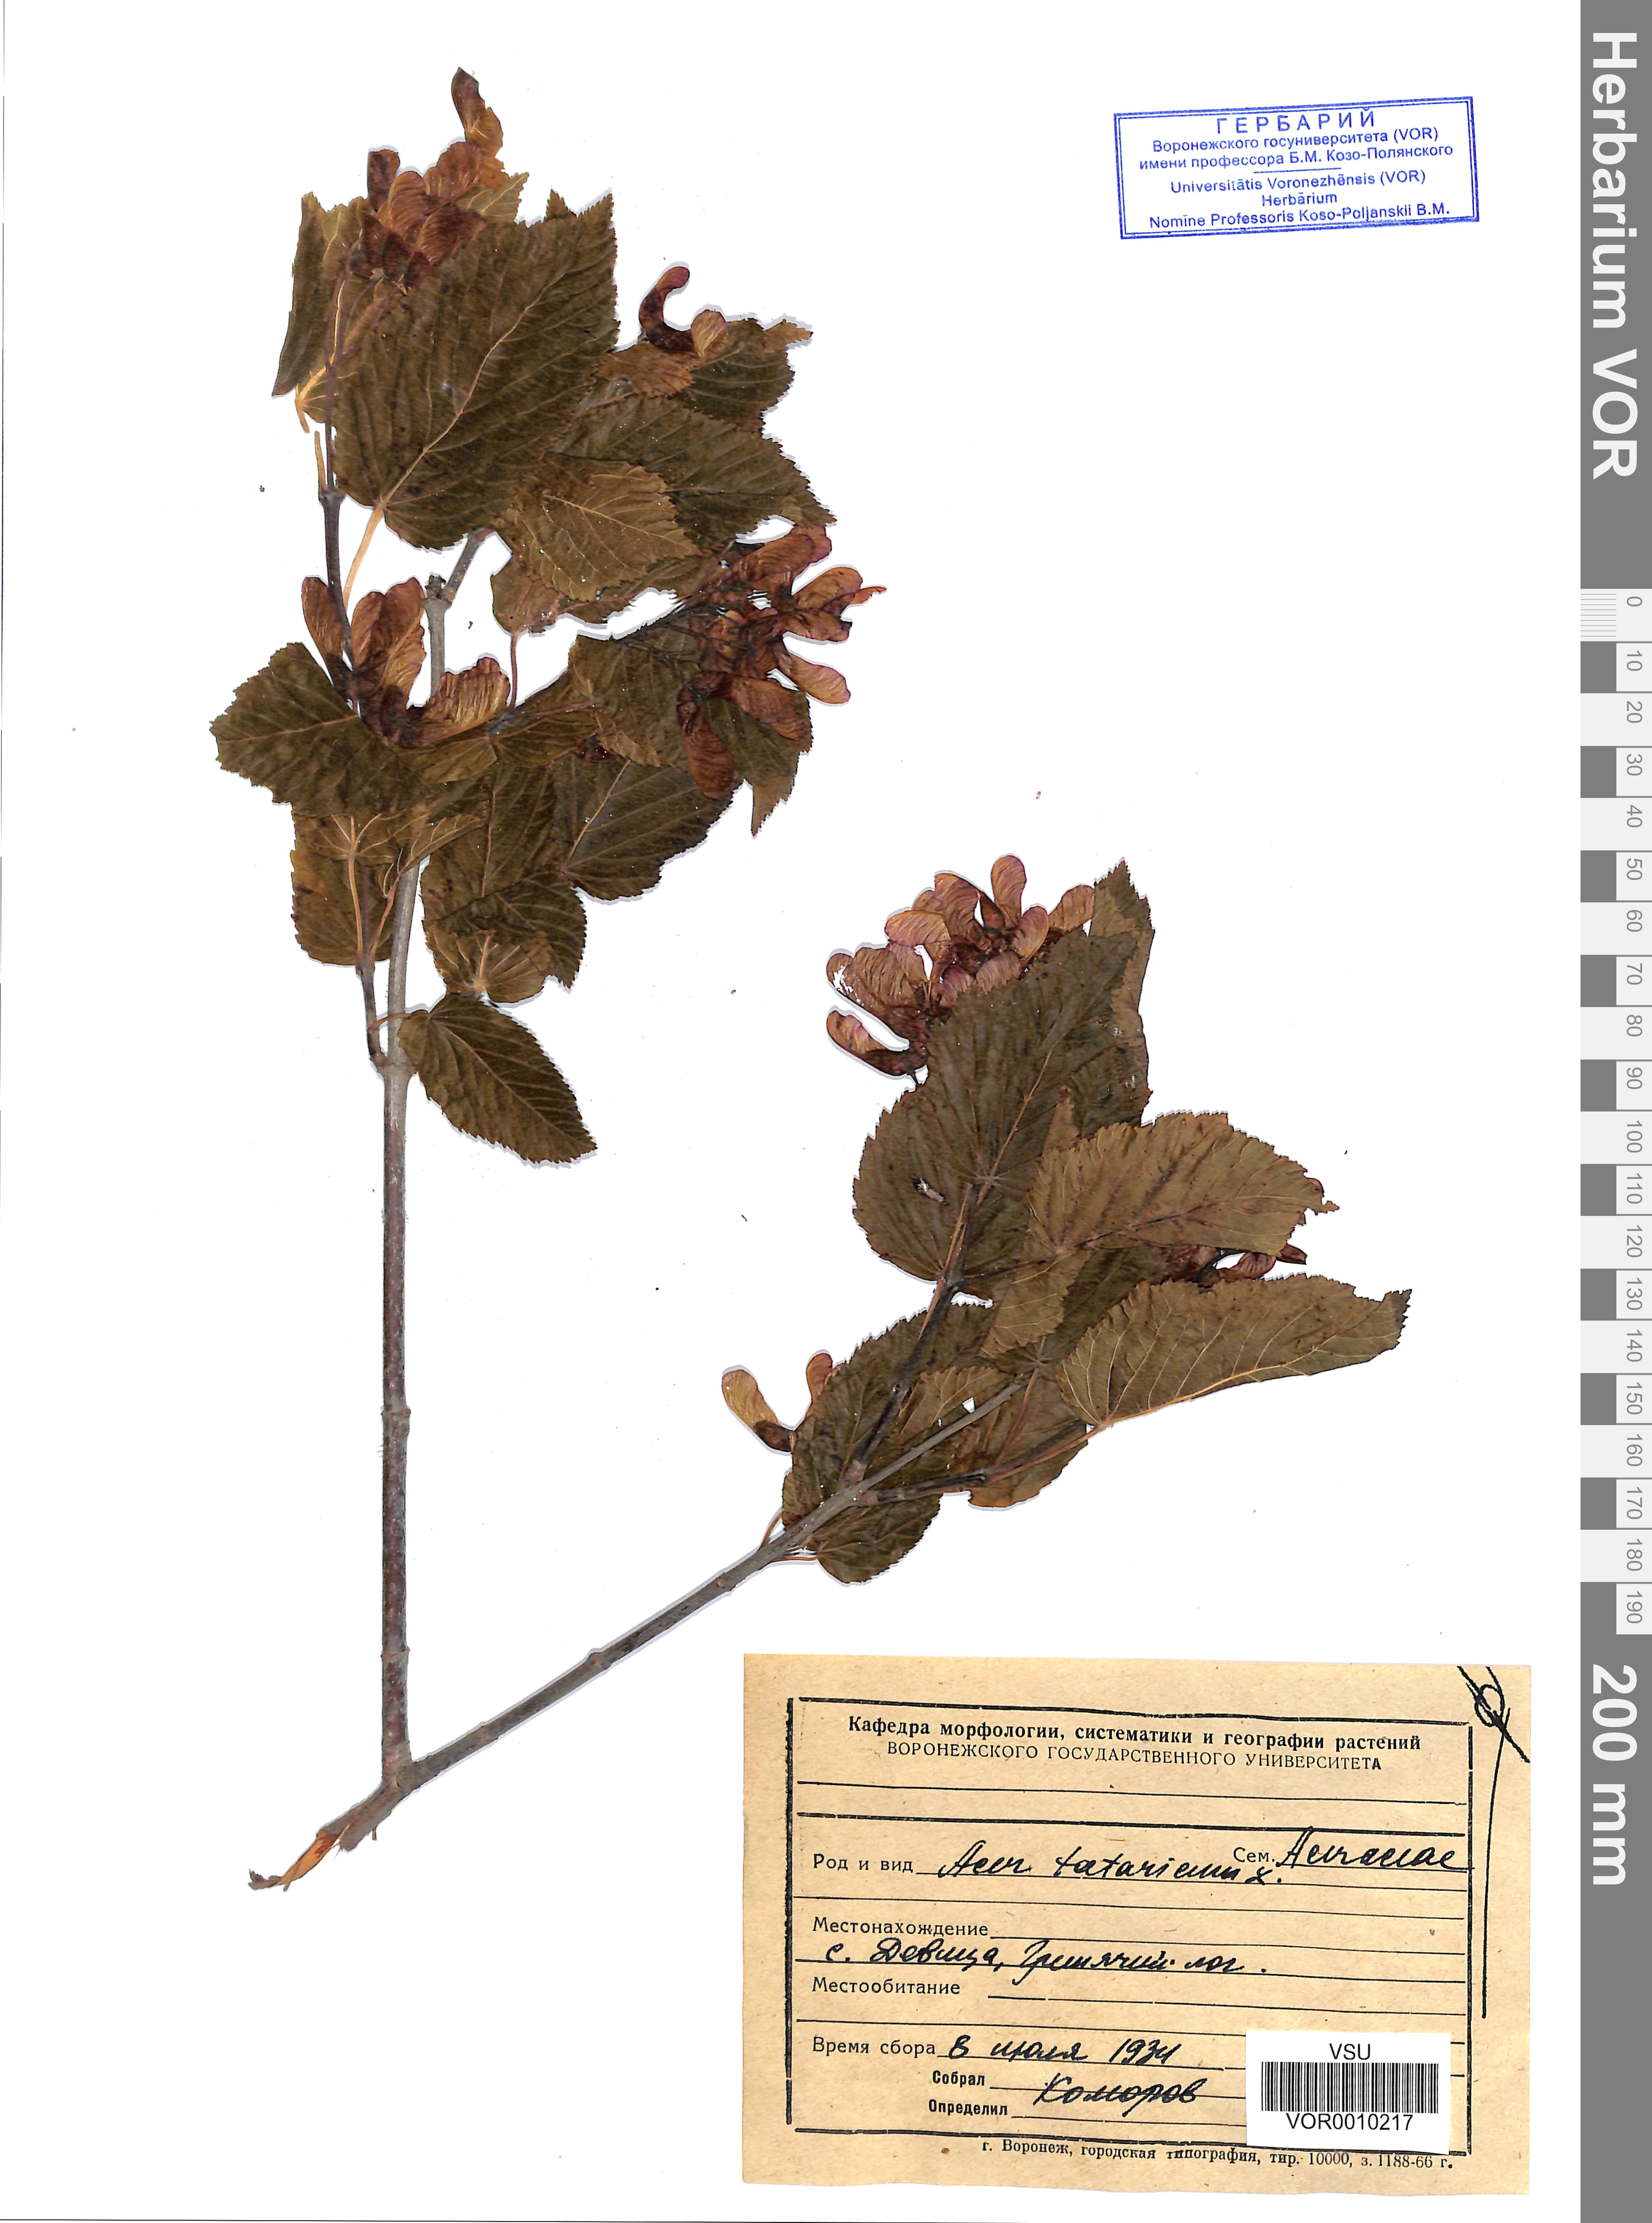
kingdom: Plantae
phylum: Tracheophyta
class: Magnoliopsida
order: Sapindales
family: Sapindaceae
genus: Acer
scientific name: Acer tataricum
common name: Tartar maple
